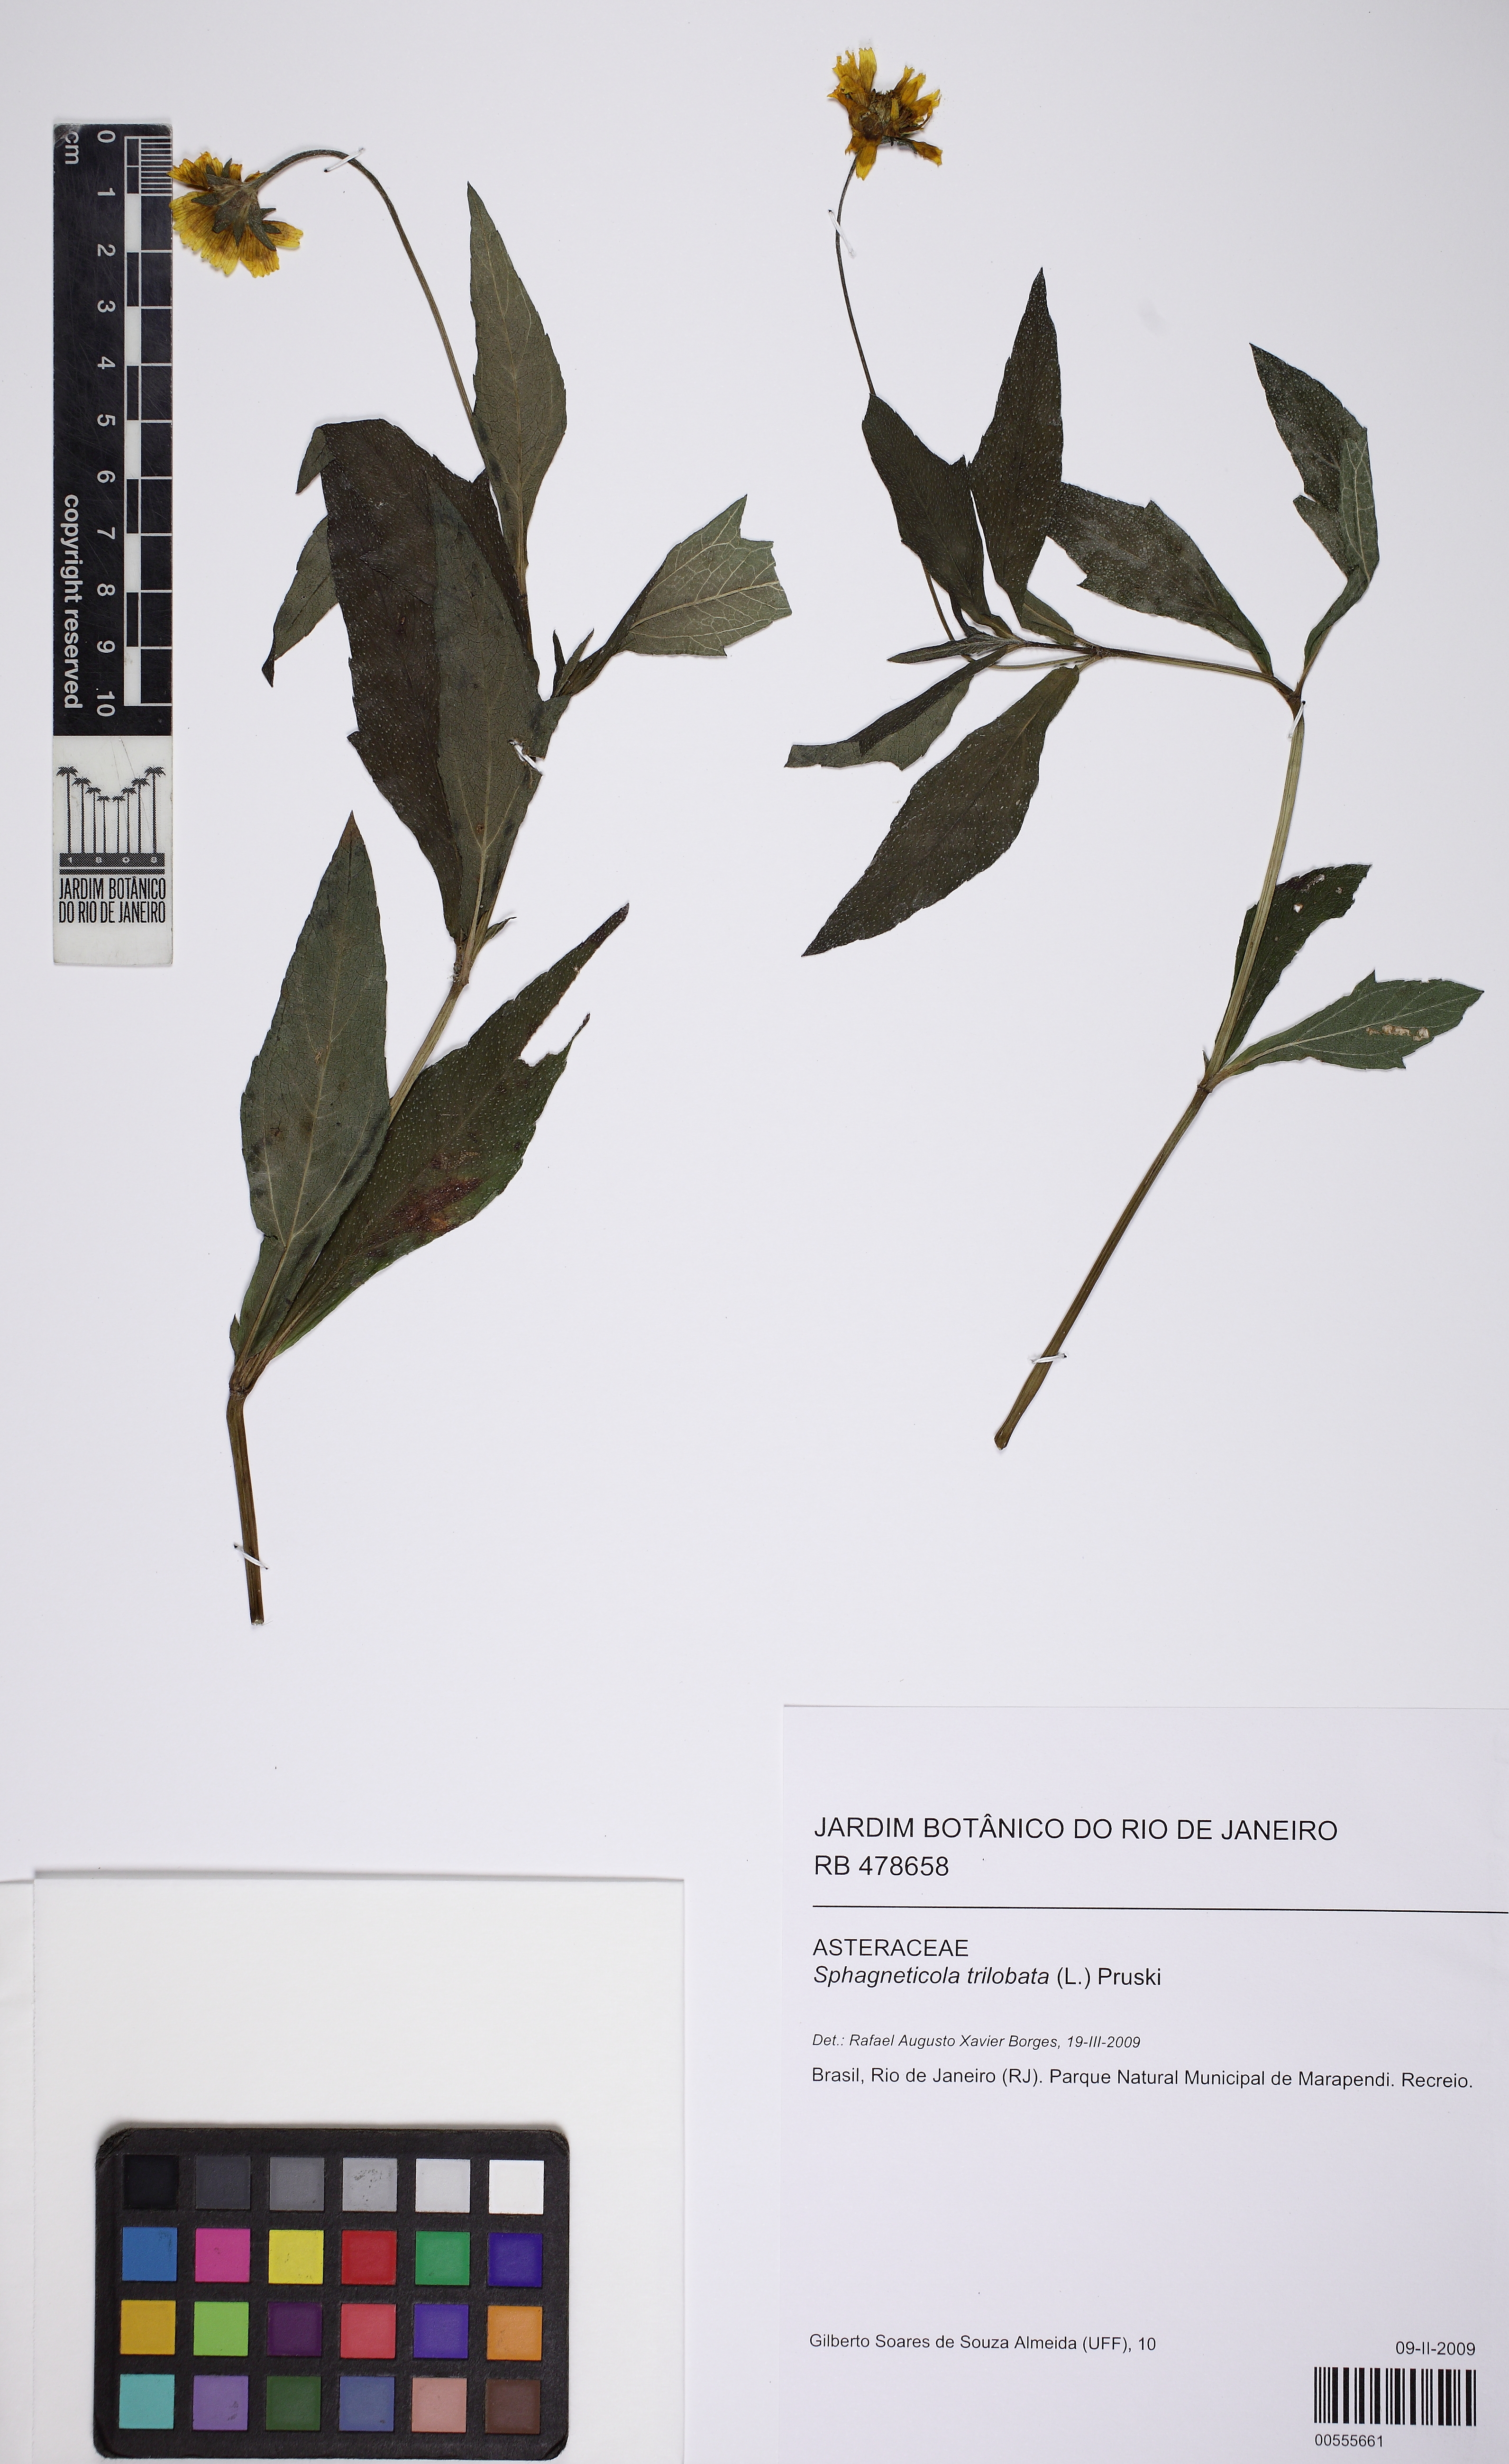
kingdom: Plantae
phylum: Tracheophyta
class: Magnoliopsida
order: Asterales
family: Asteraceae
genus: Sphagneticola
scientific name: Sphagneticola trilobata
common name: Bay biscayne creeping-oxeye
